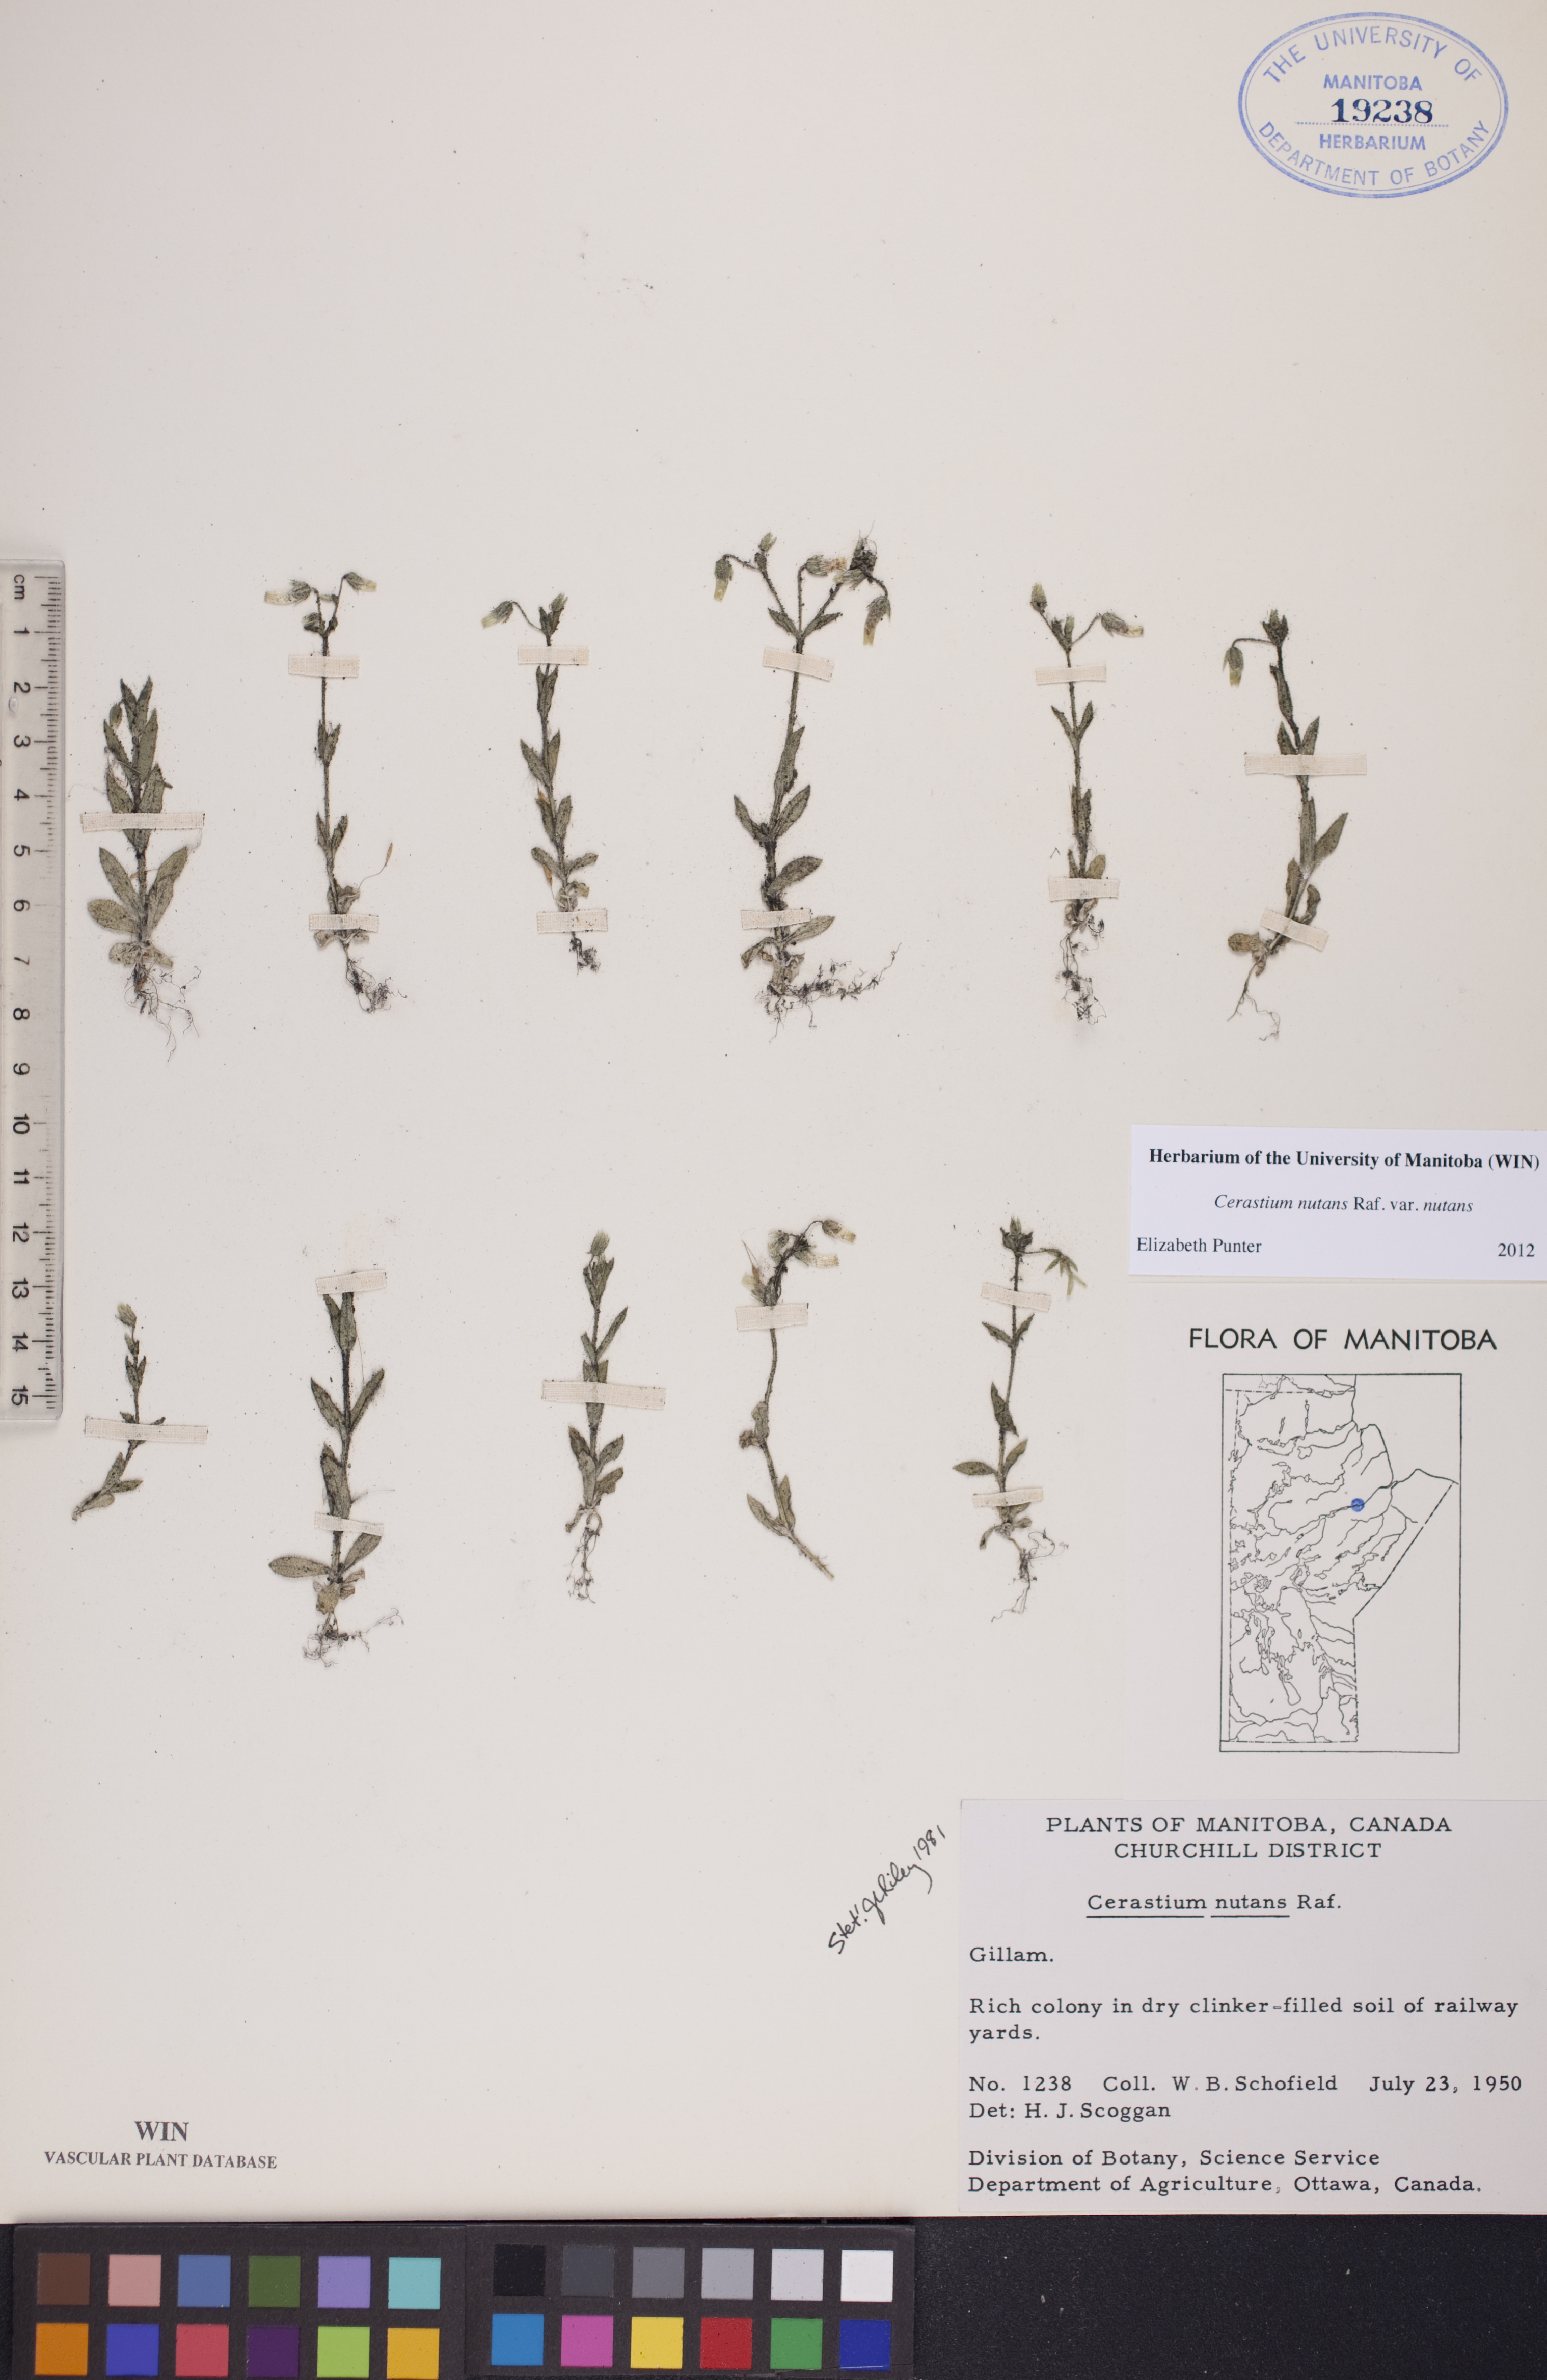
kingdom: Plantae
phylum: Tracheophyta
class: Magnoliopsida
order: Caryophyllales
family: Caryophyllaceae
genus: Cerastium
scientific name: Cerastium nutans
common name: Long-stalked chickweed
